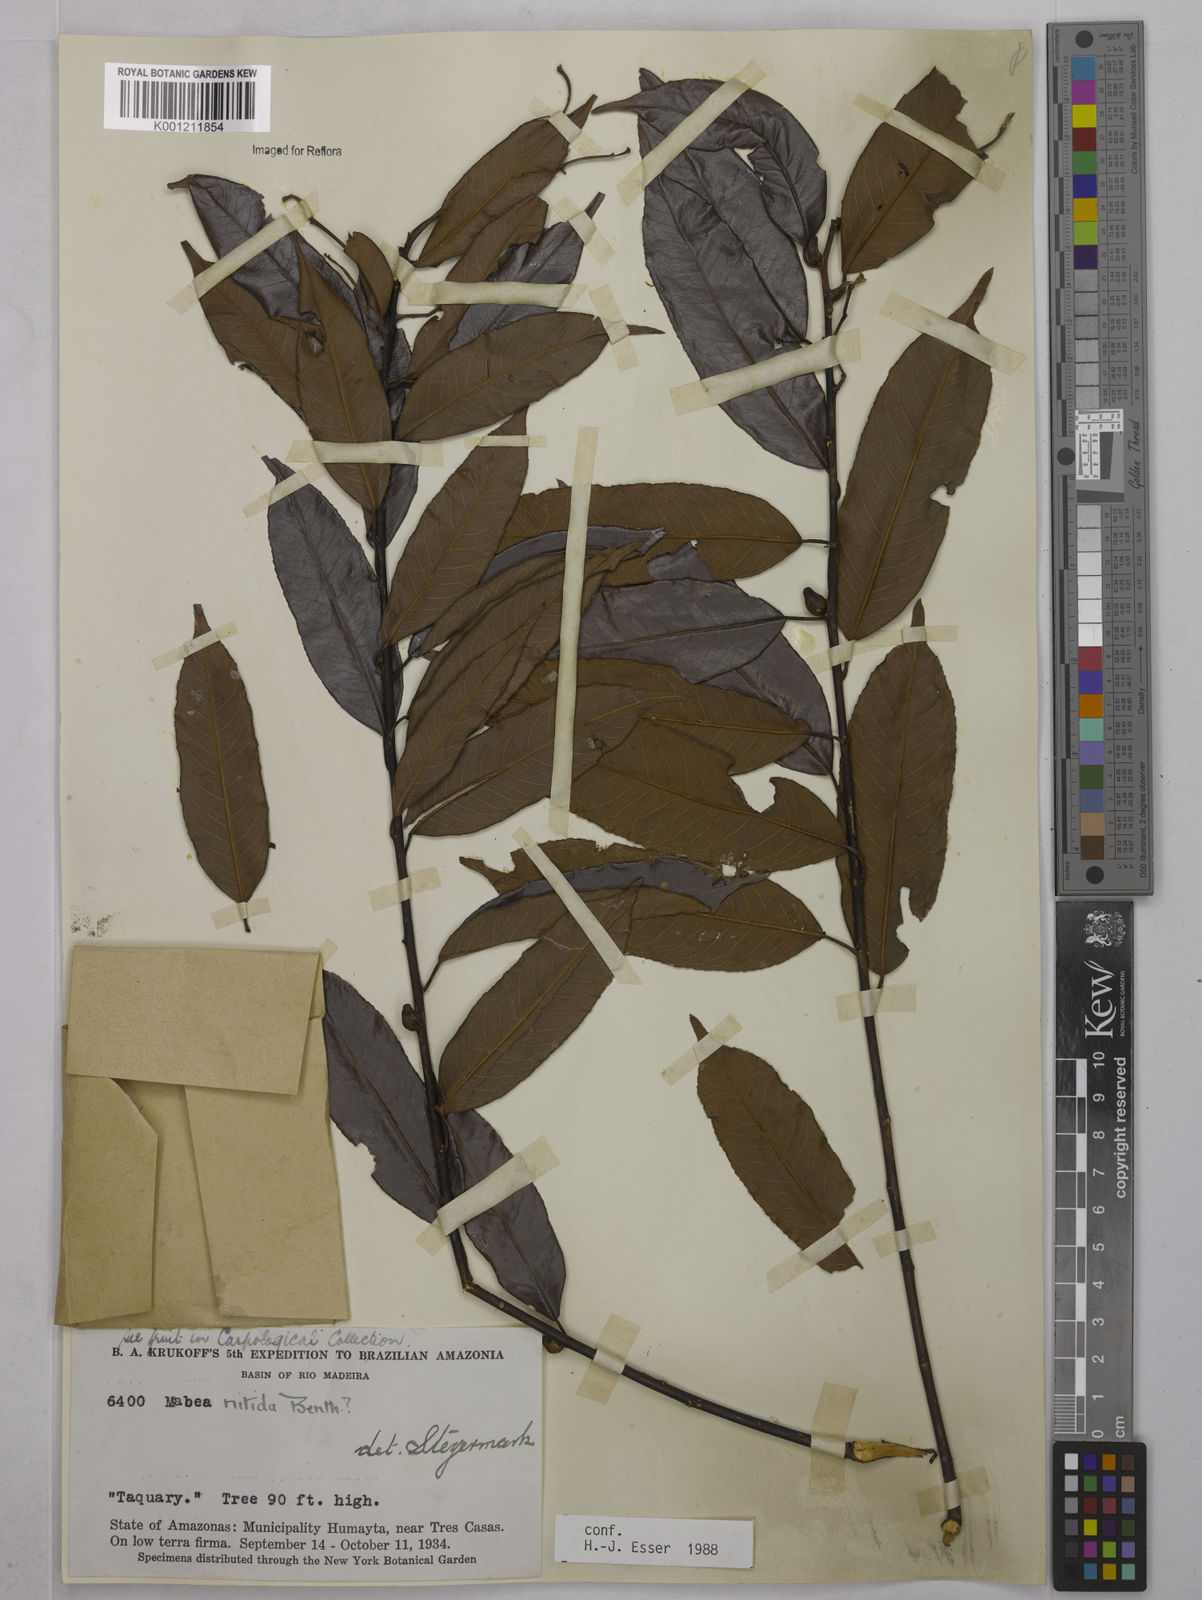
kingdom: Plantae
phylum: Tracheophyta
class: Magnoliopsida
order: Malpighiales
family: Euphorbiaceae
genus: Mabea
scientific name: Mabea nitida
